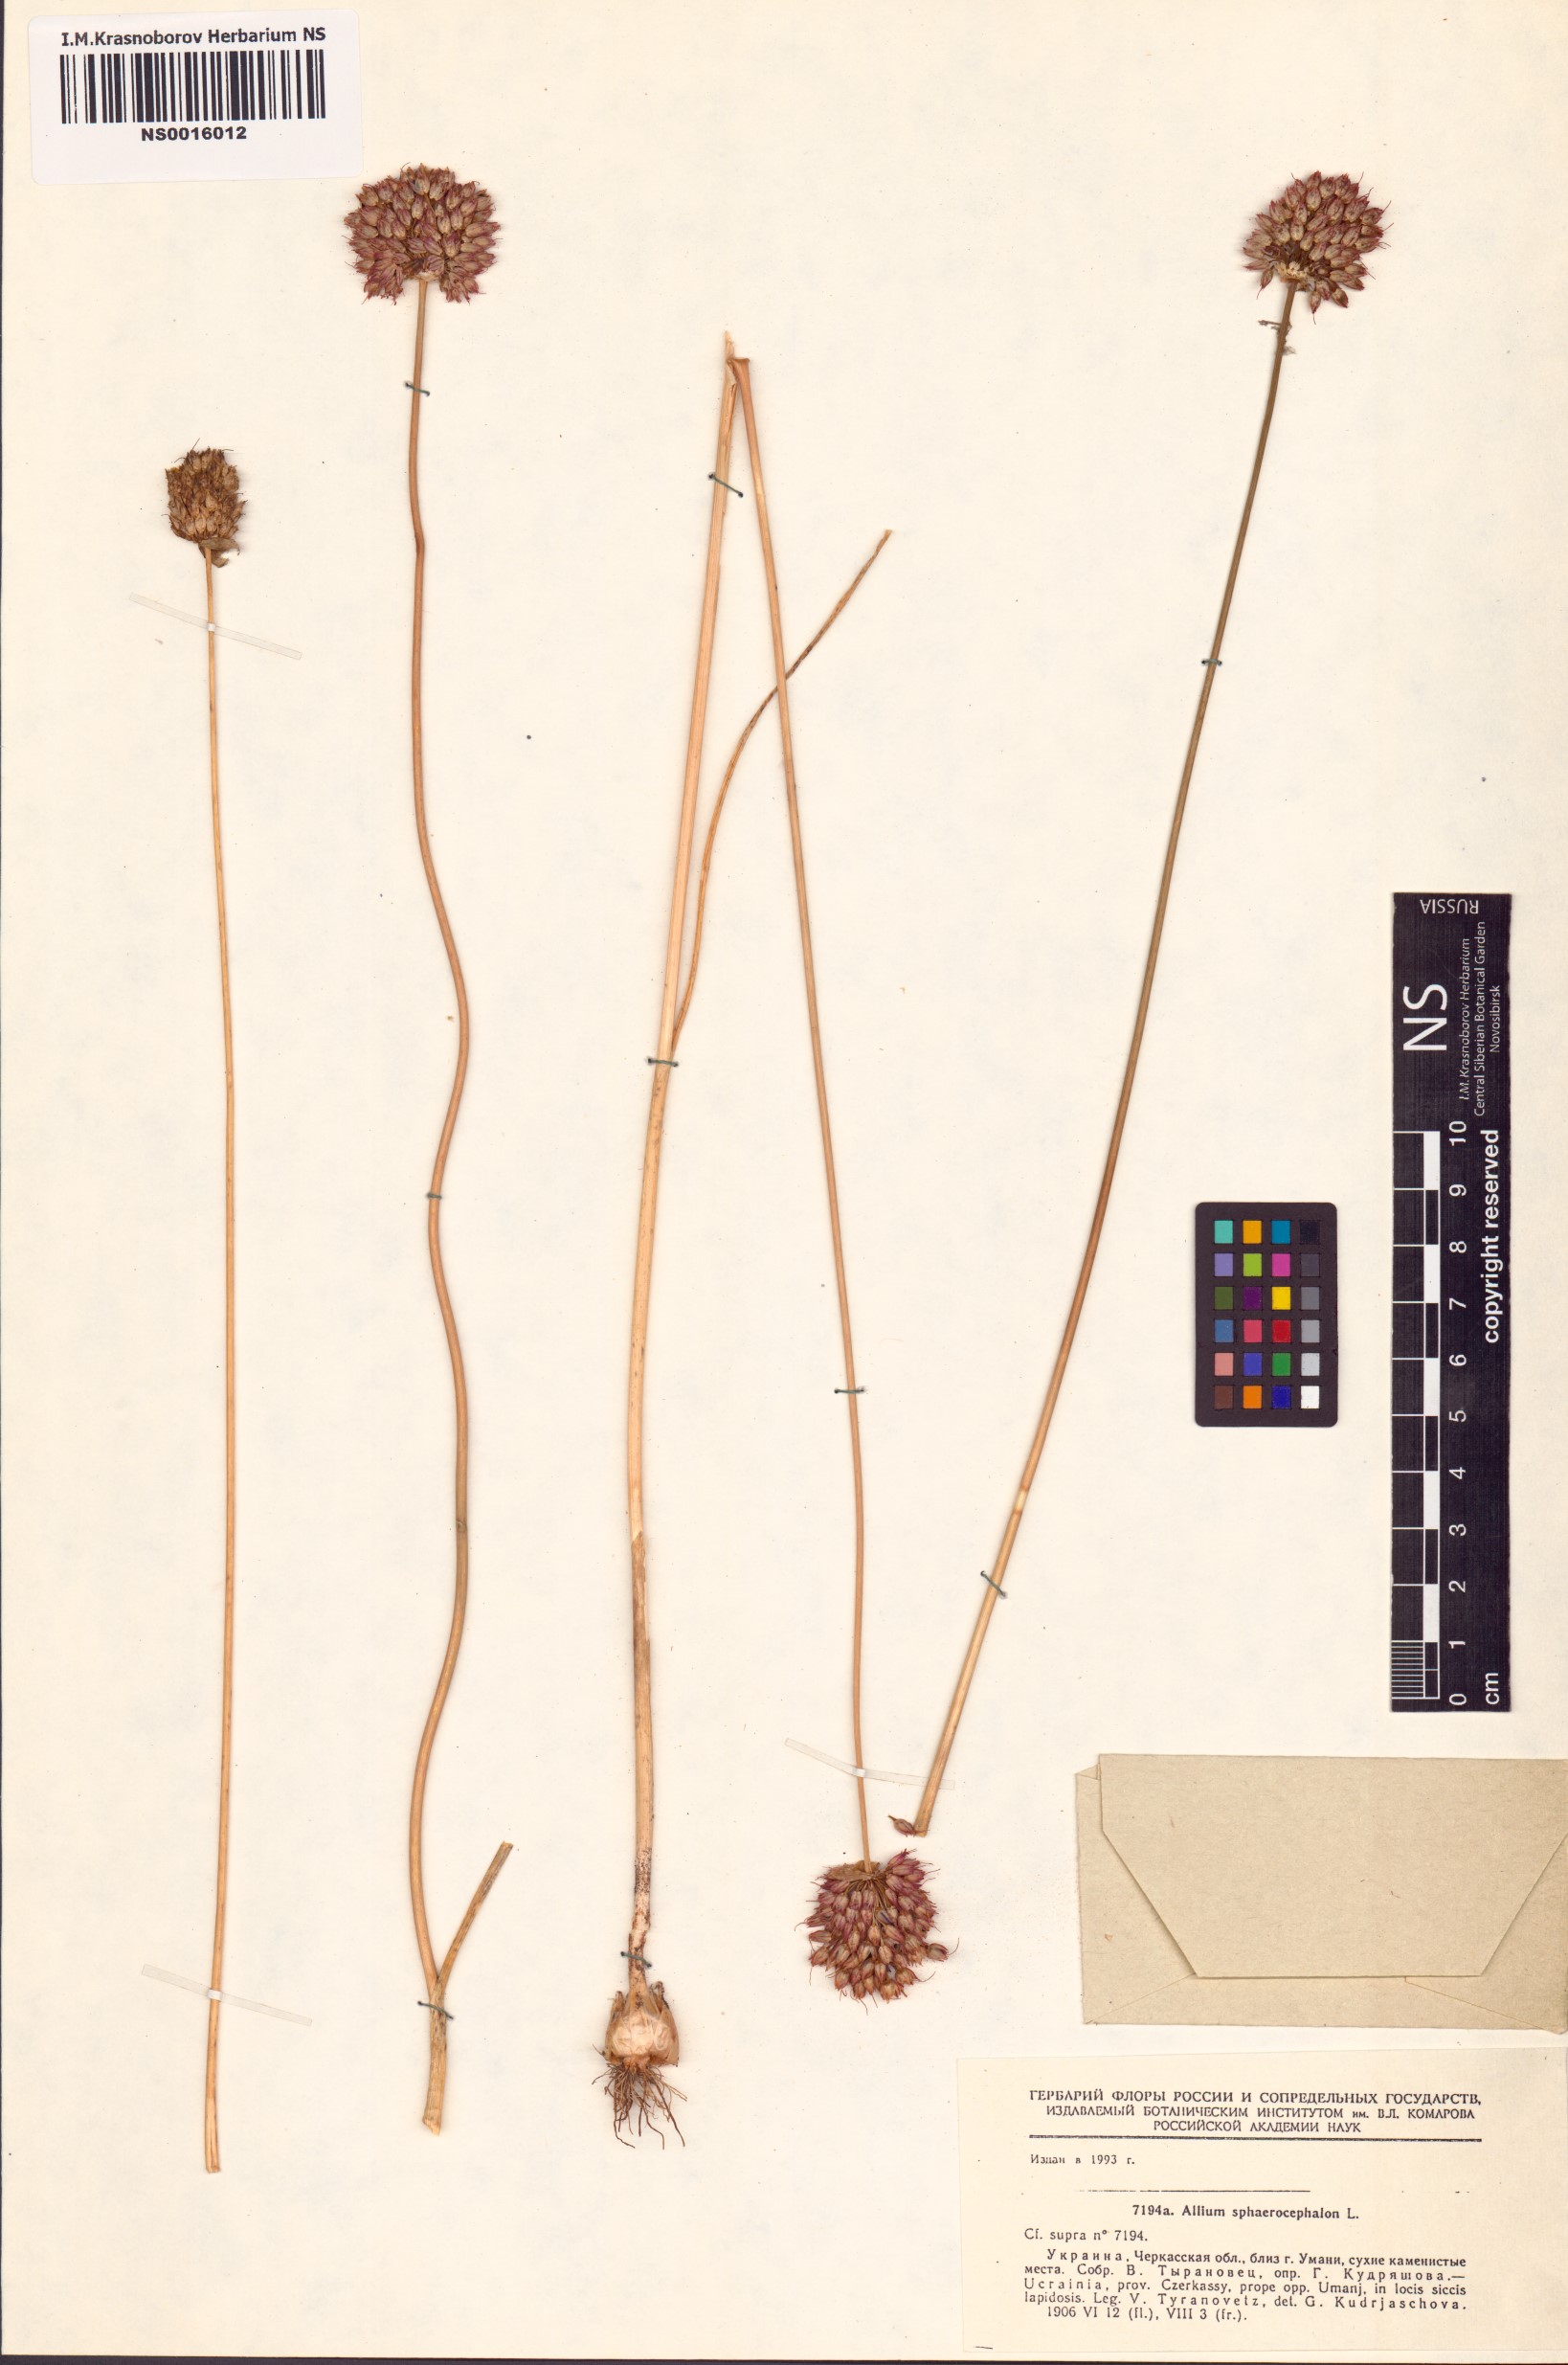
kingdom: Plantae
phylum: Tracheophyta
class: Liliopsida
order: Asparagales
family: Amaryllidaceae
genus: Allium
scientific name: Allium sphaerocephalon
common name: Round-headed leek
